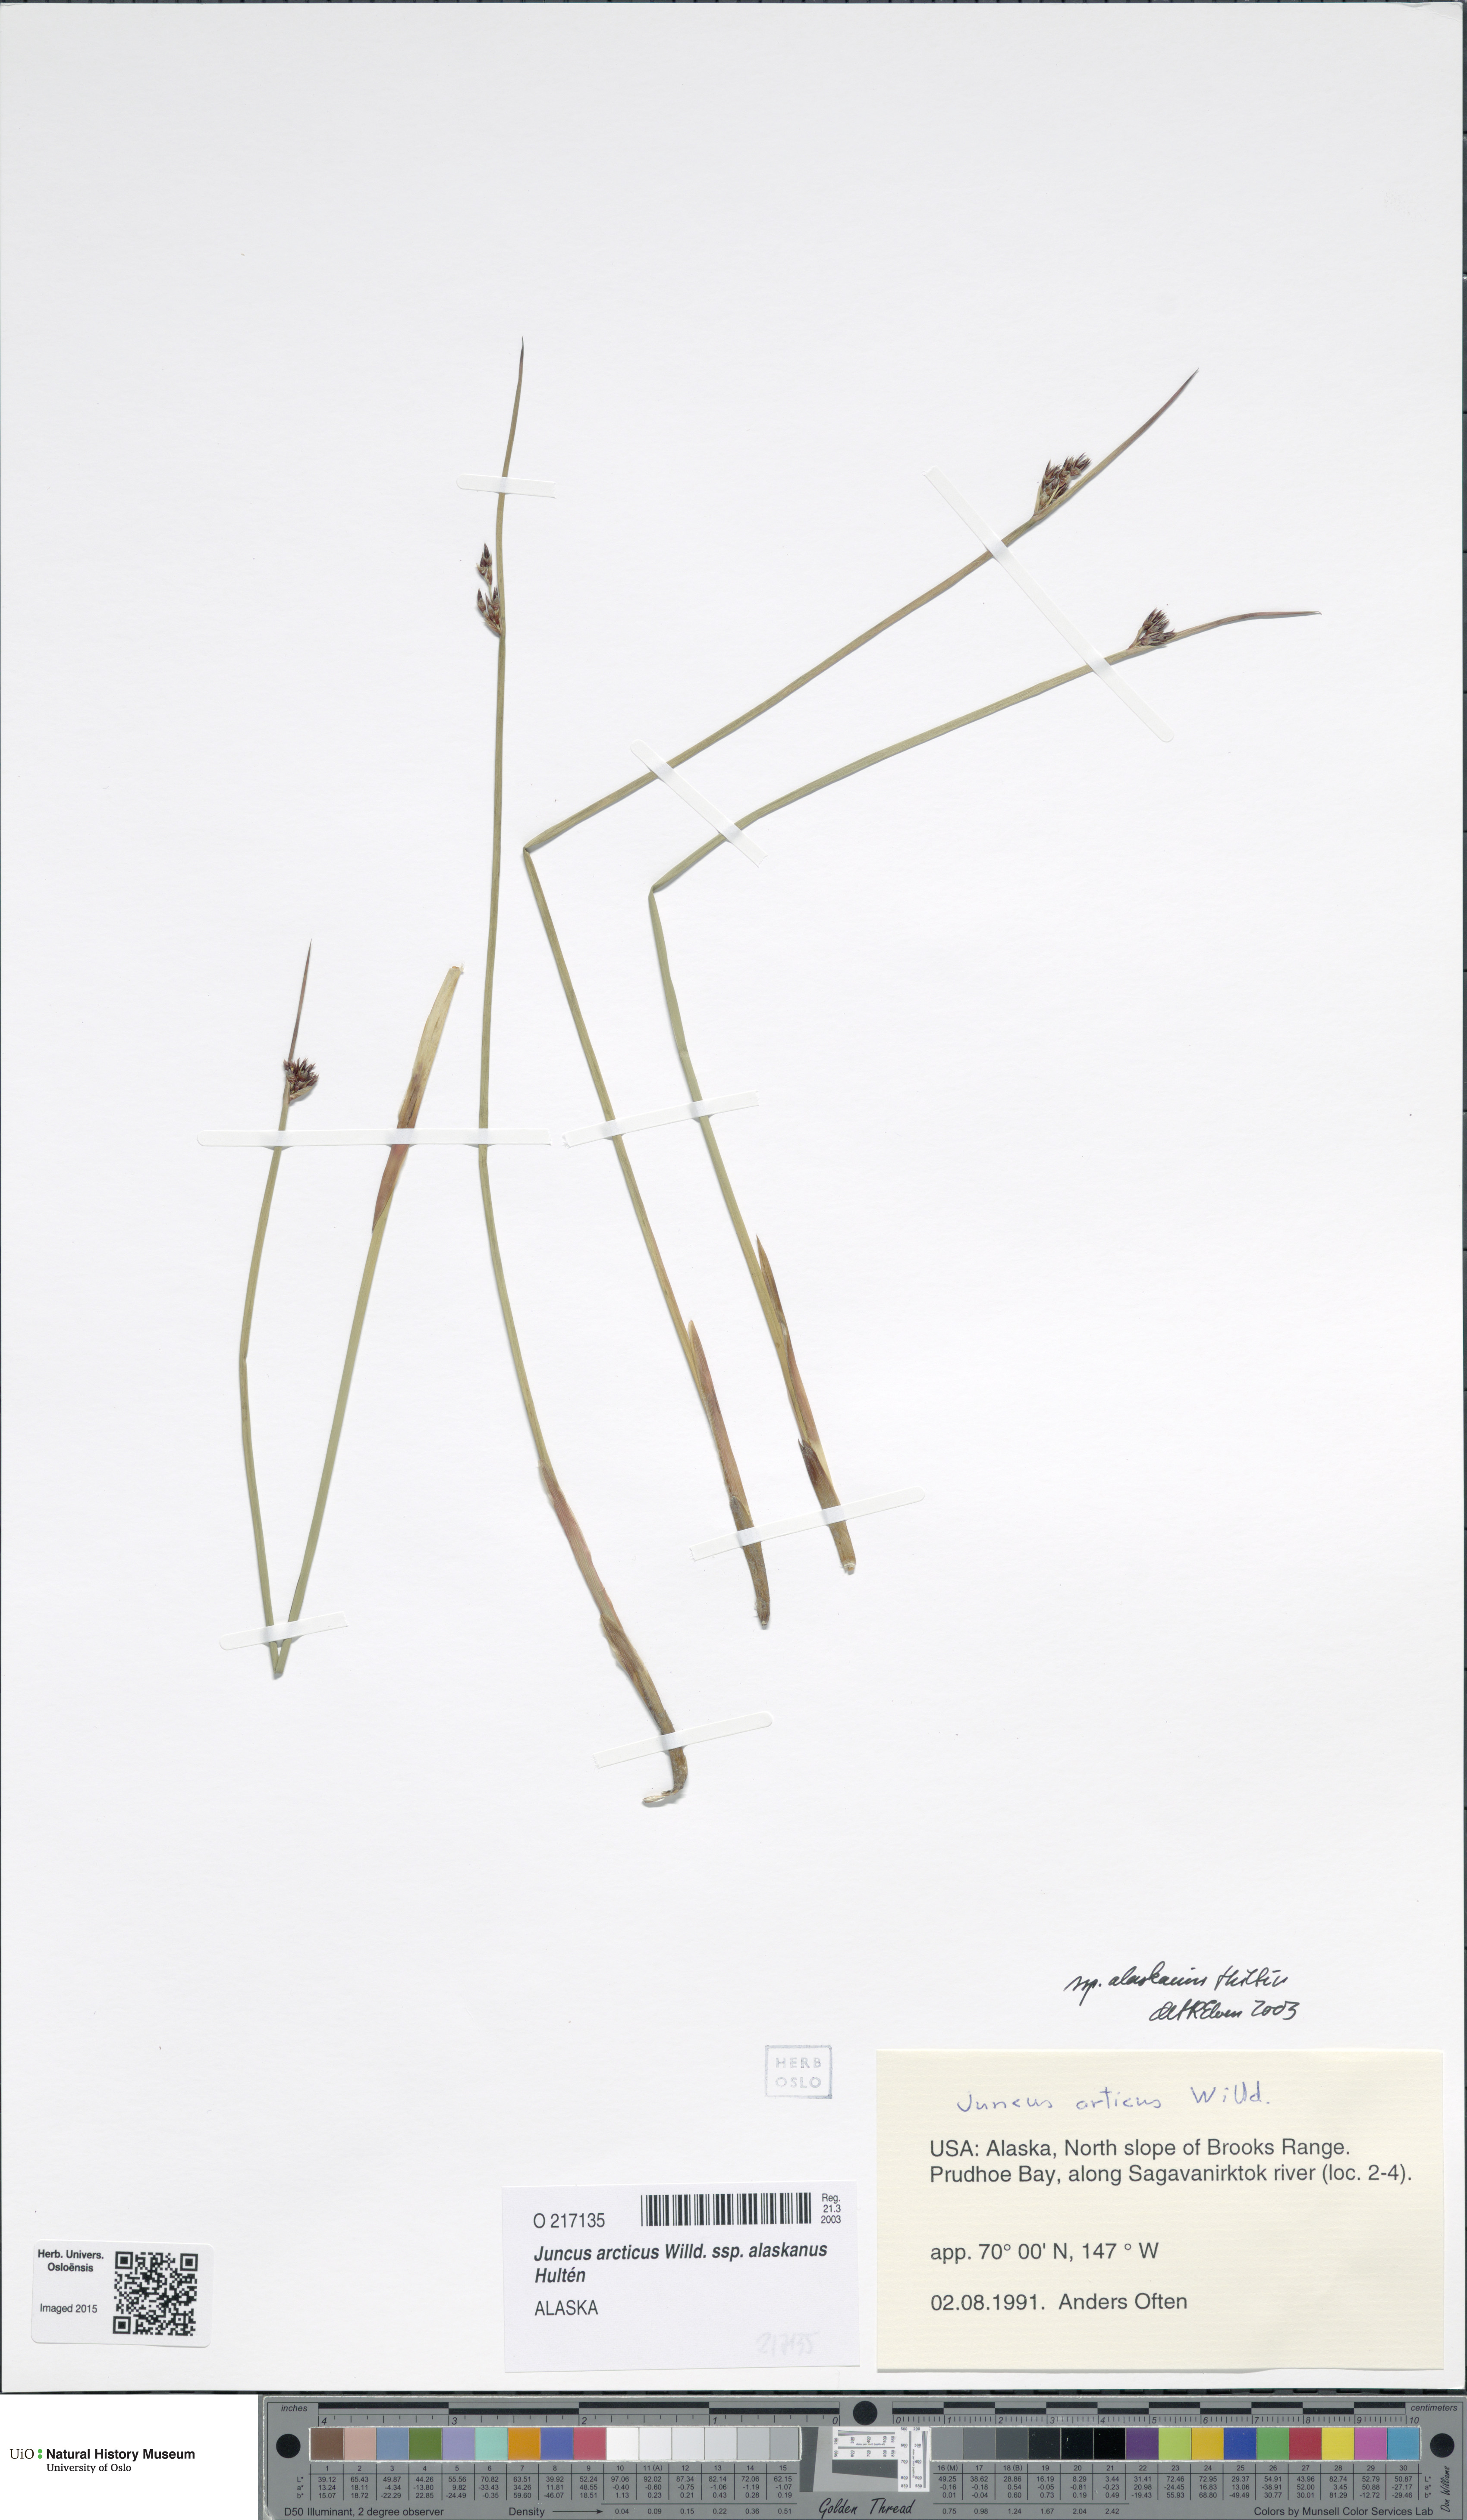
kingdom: Plantae
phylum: Tracheophyta
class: Liliopsida
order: Poales
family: Juncaceae
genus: Juncus
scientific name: Juncus arcticus
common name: Arctic rush
